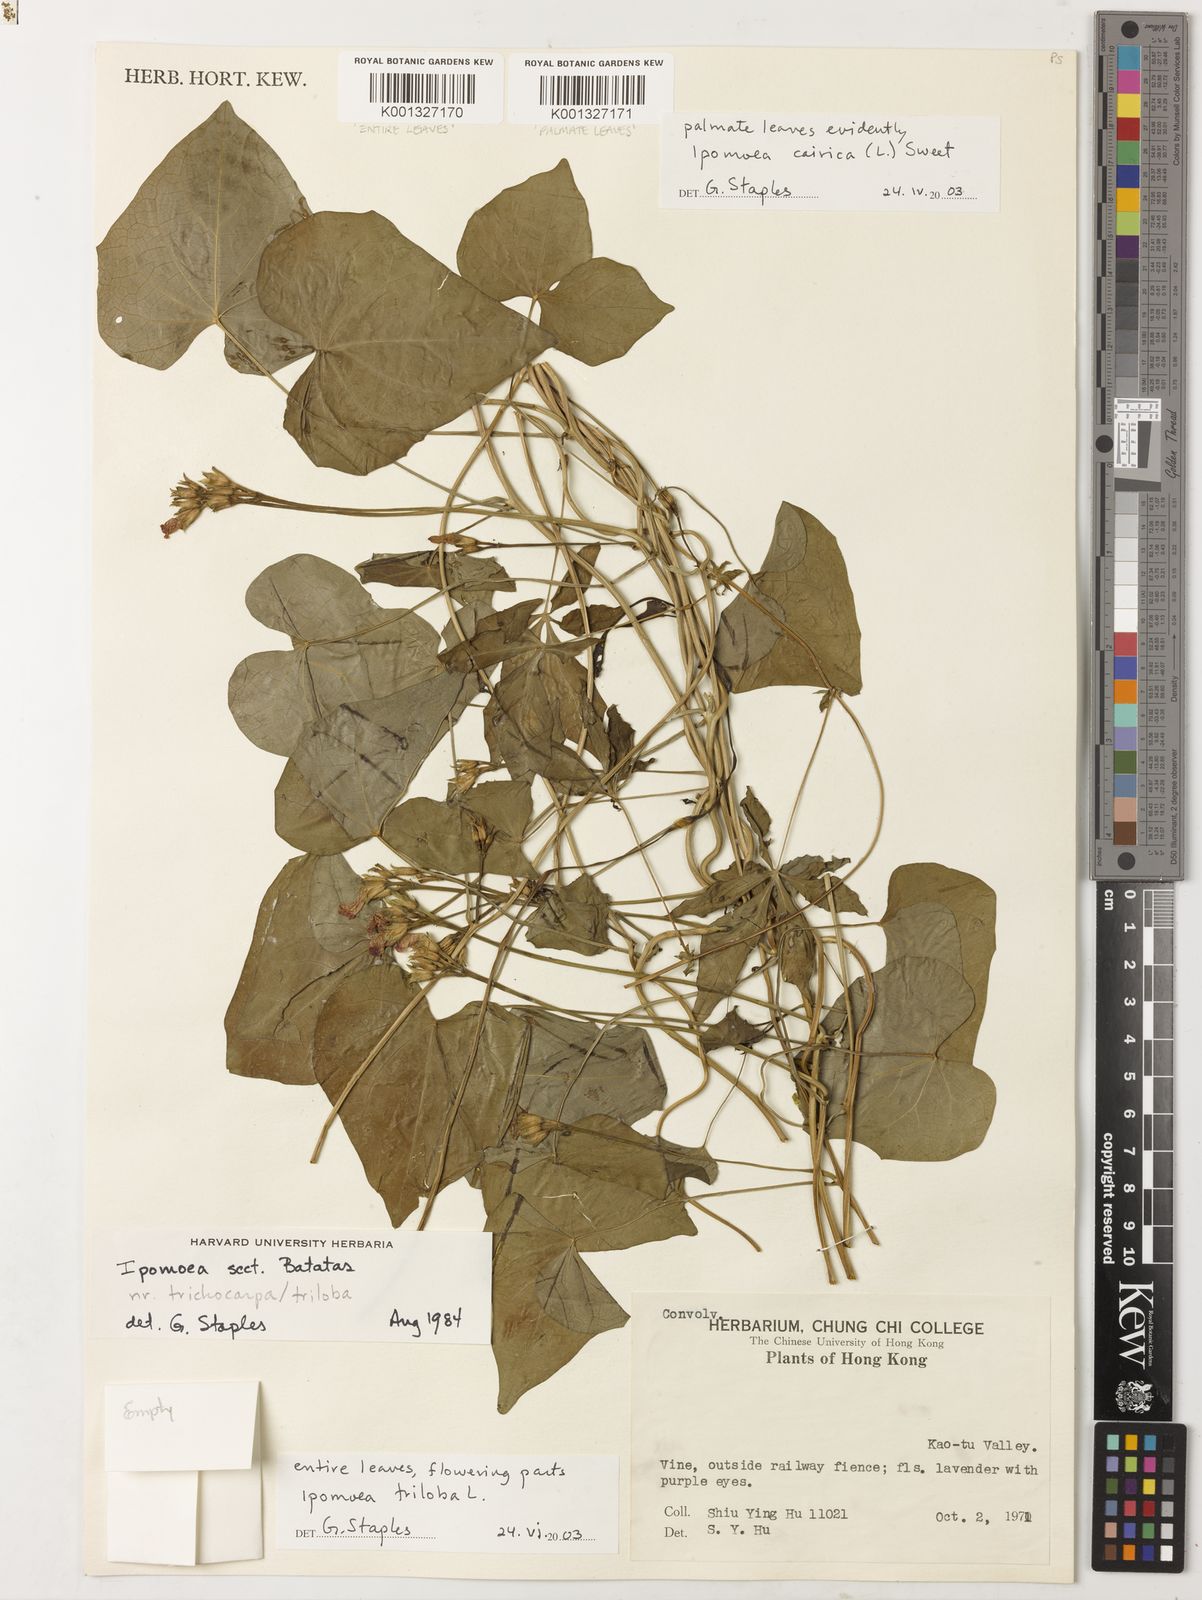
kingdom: Plantae
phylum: Tracheophyta
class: Magnoliopsida
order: Solanales
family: Convolvulaceae
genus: Ipomoea
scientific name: Ipomoea triloba
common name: Little-bell
